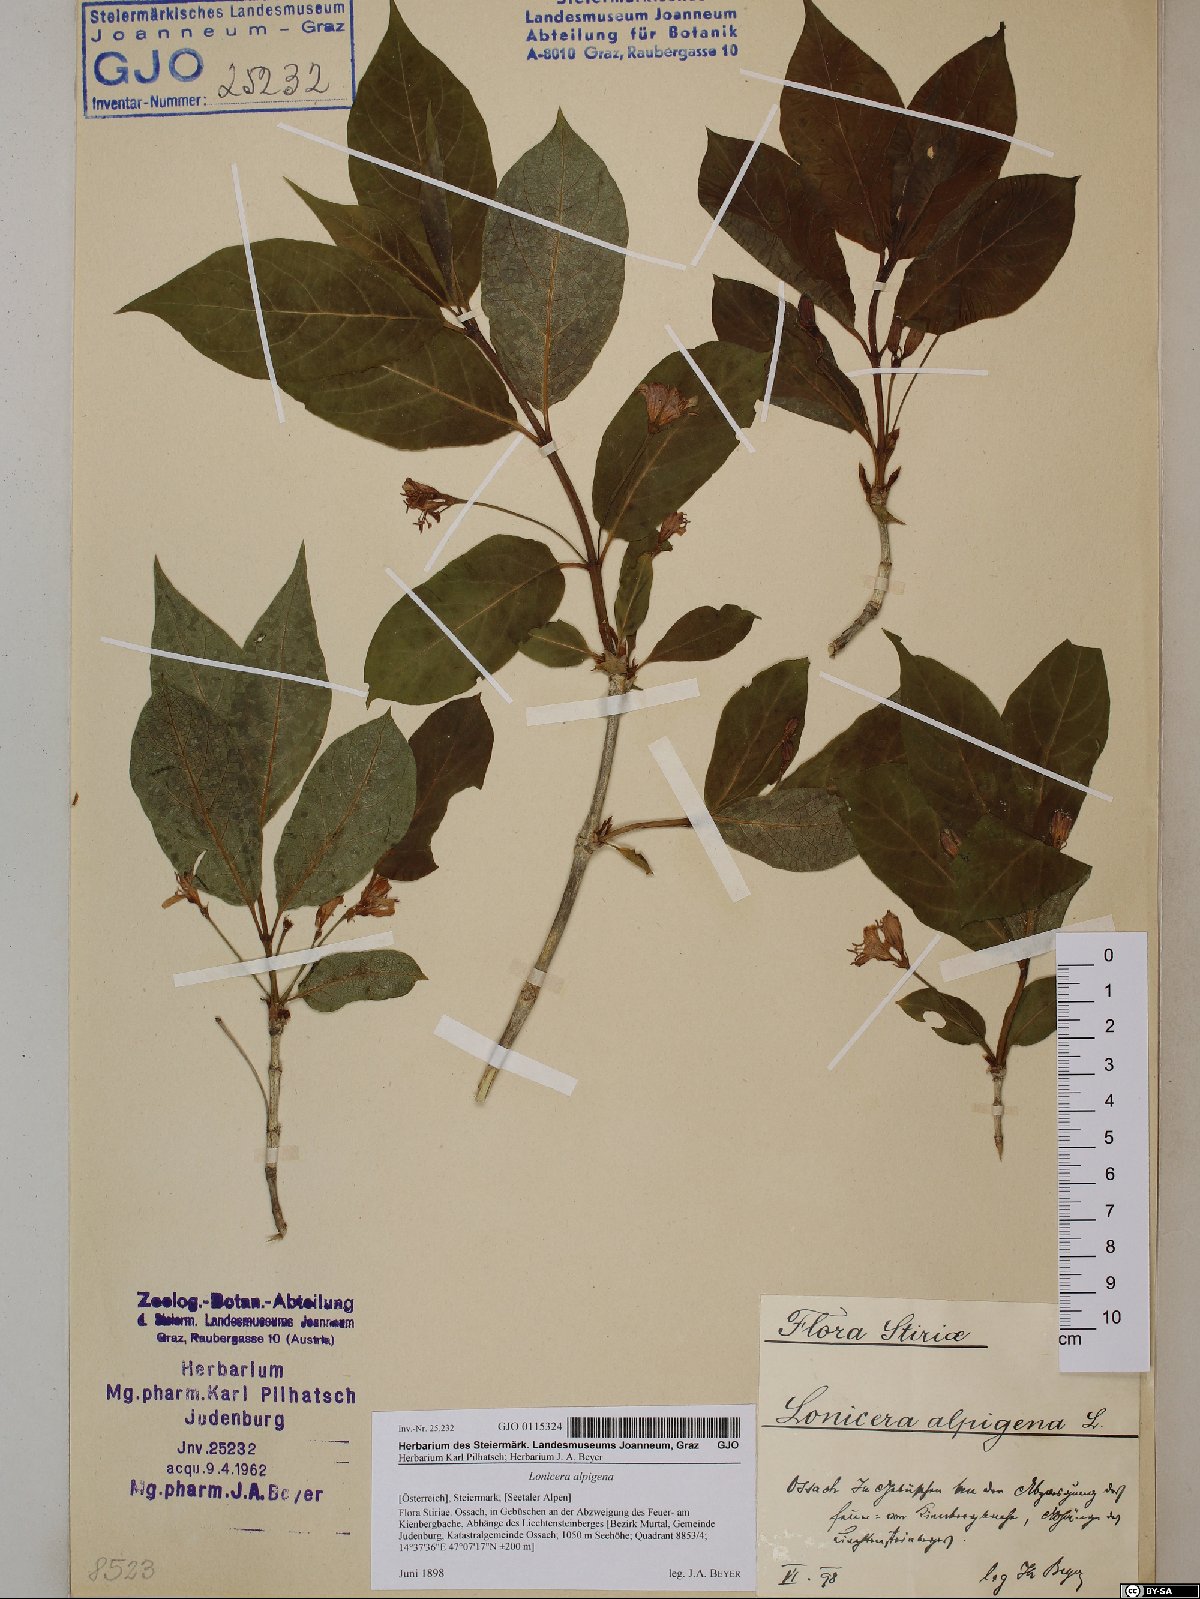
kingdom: Plantae
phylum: Tracheophyta
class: Magnoliopsida
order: Dipsacales
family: Caprifoliaceae
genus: Lonicera
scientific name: Lonicera alpigena
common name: Alpine honeysuckle
